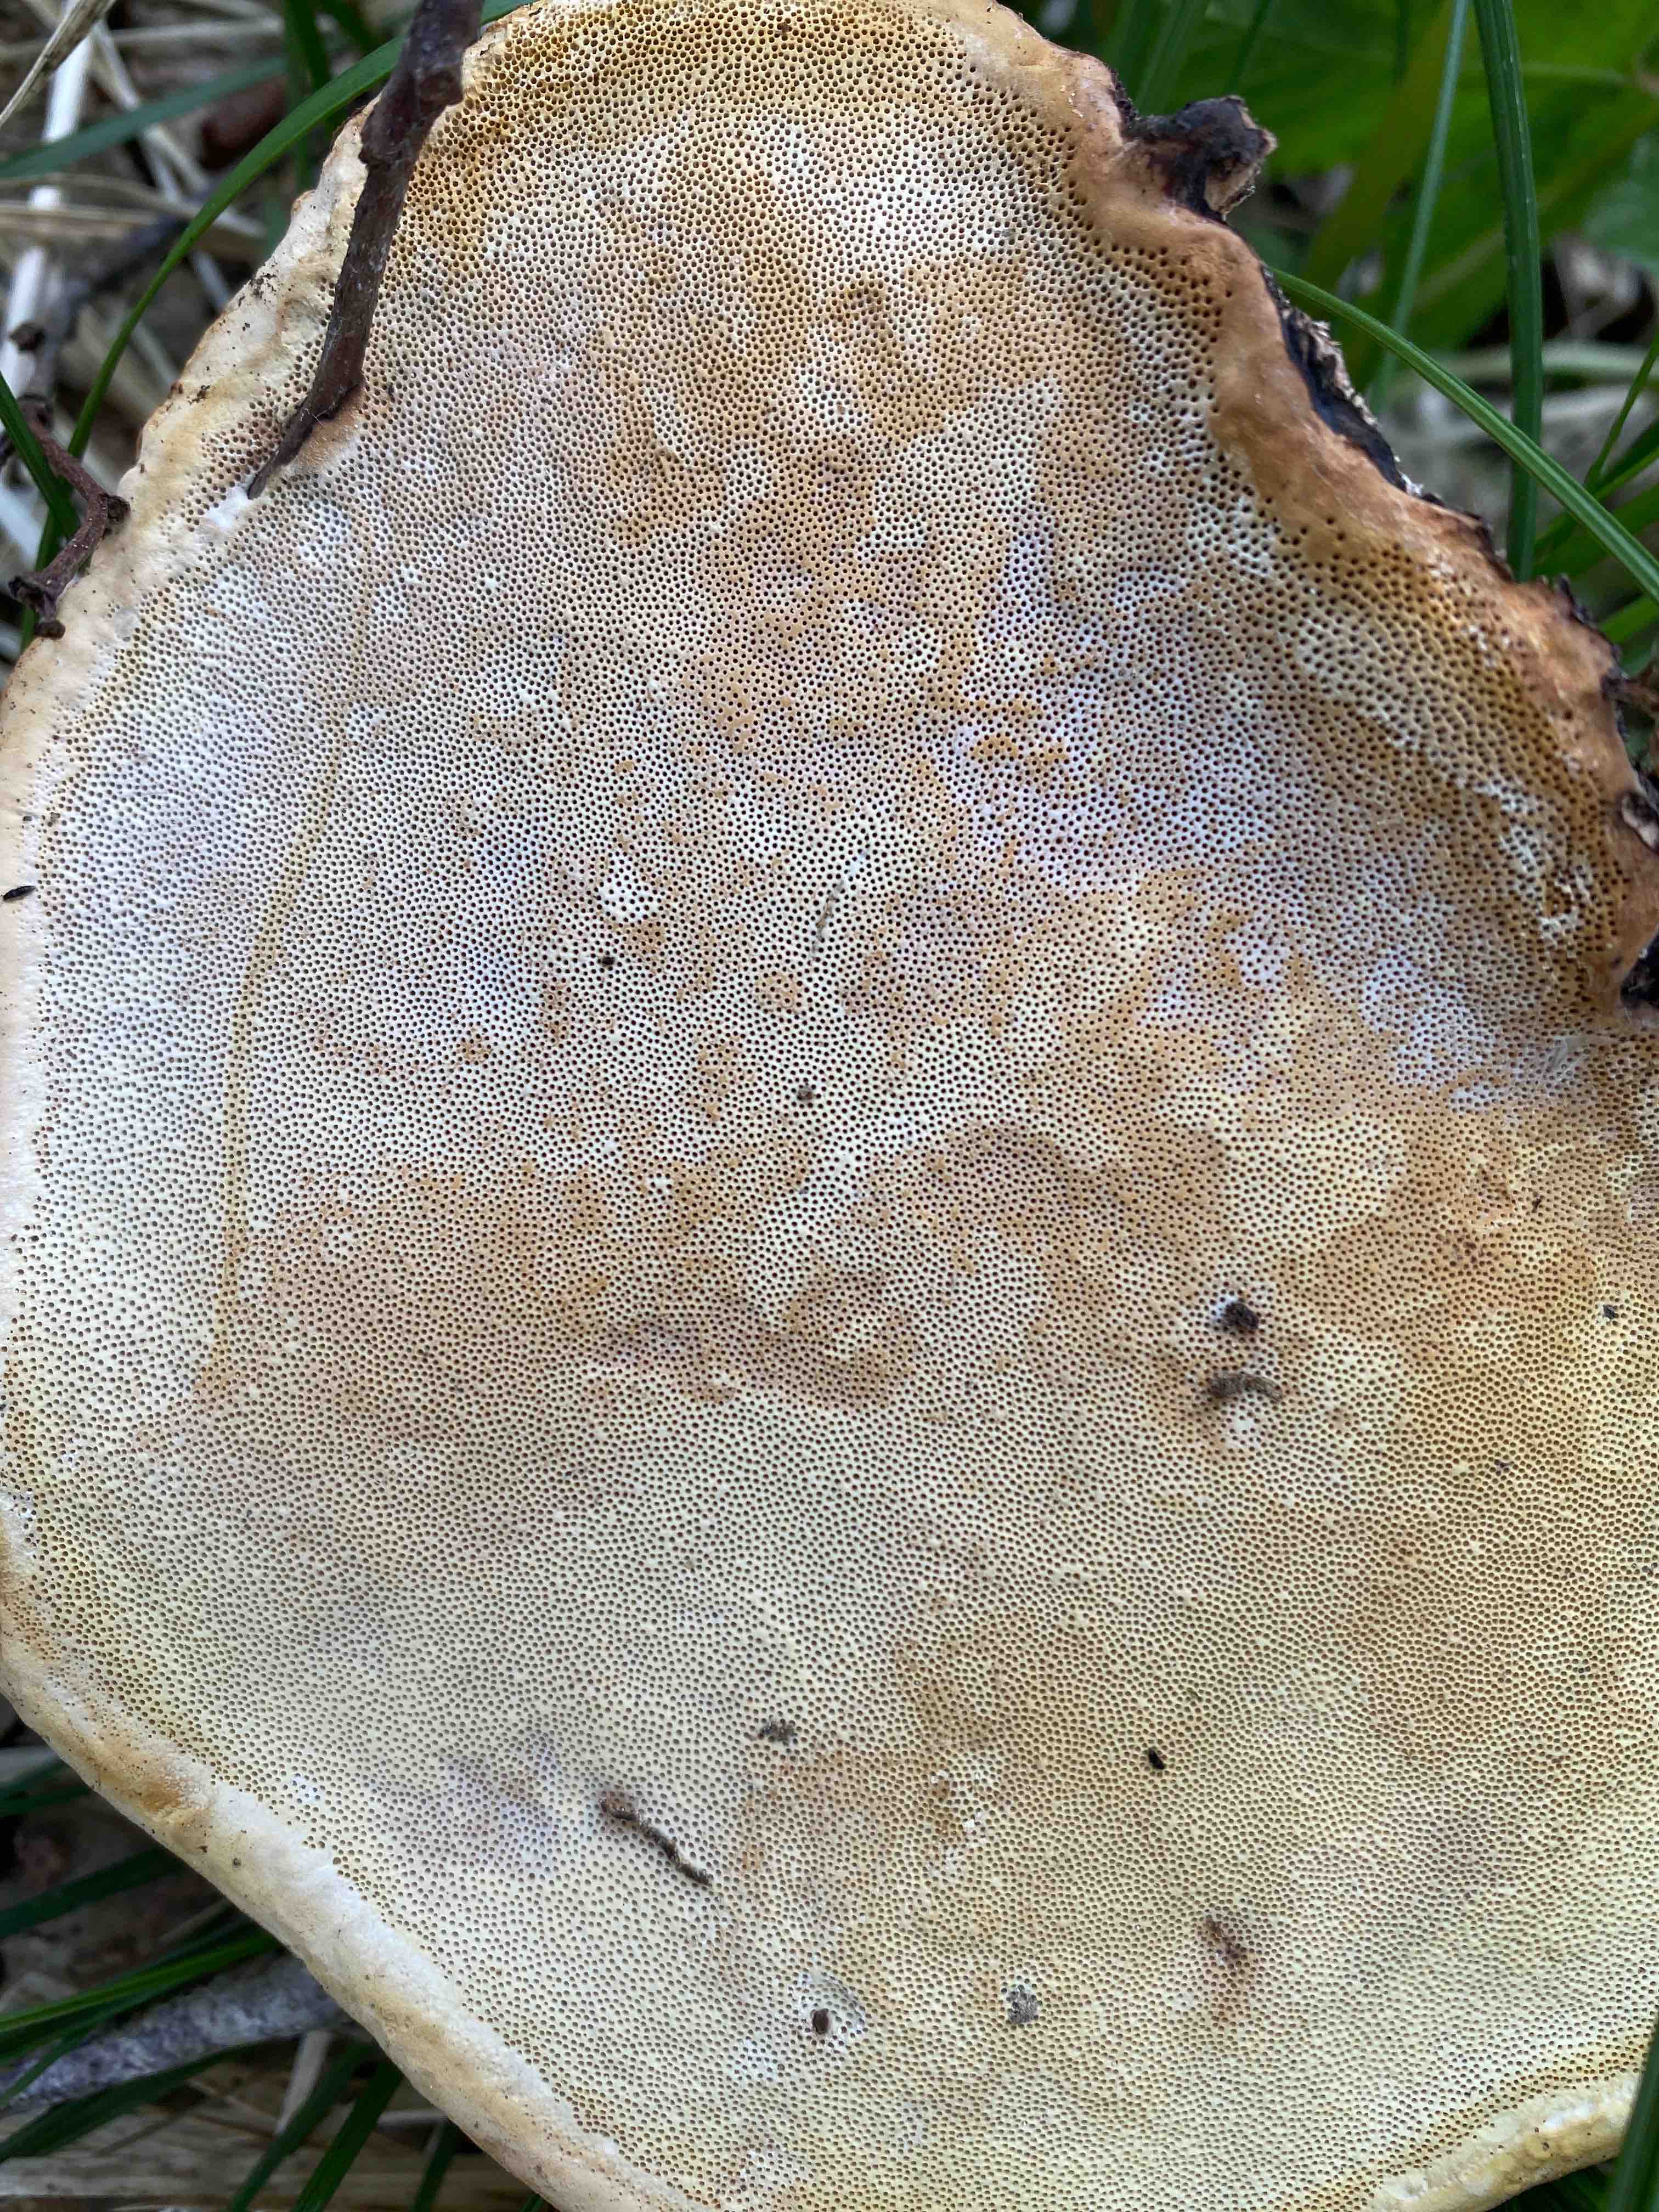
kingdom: Fungi
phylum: Basidiomycota
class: Agaricomycetes
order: Polyporales
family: Fomitopsidaceae
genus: Fomitopsis
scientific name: Fomitopsis pinicola
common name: randbæltet hovporesvamp
